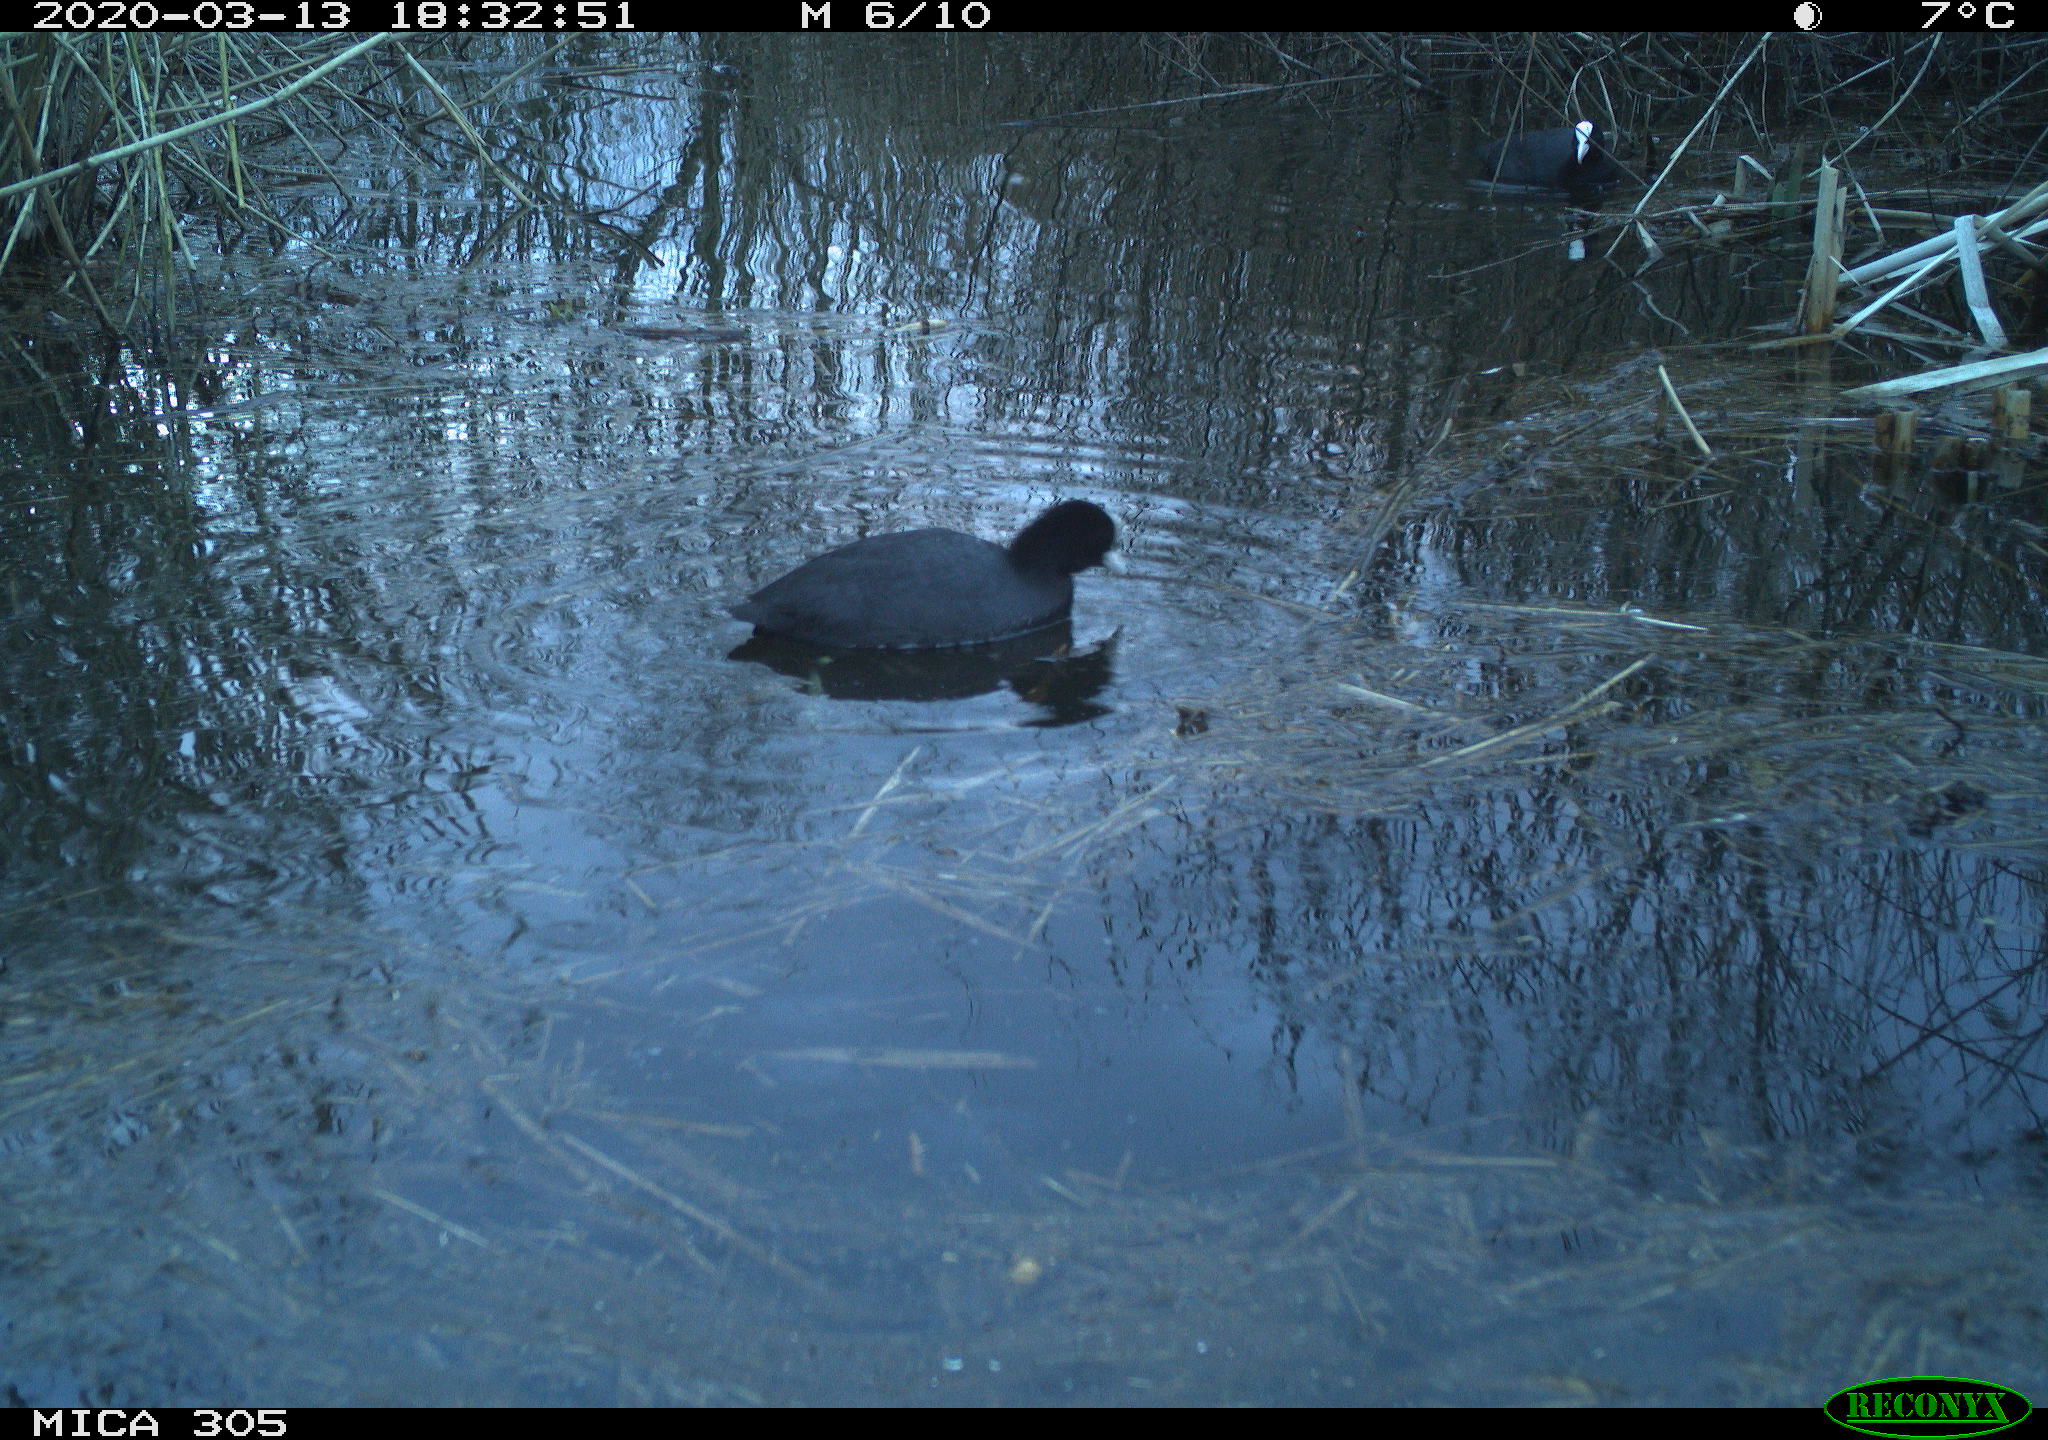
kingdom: Animalia
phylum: Chordata
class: Aves
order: Gruiformes
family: Rallidae
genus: Fulica
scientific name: Fulica atra
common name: Eurasian coot
